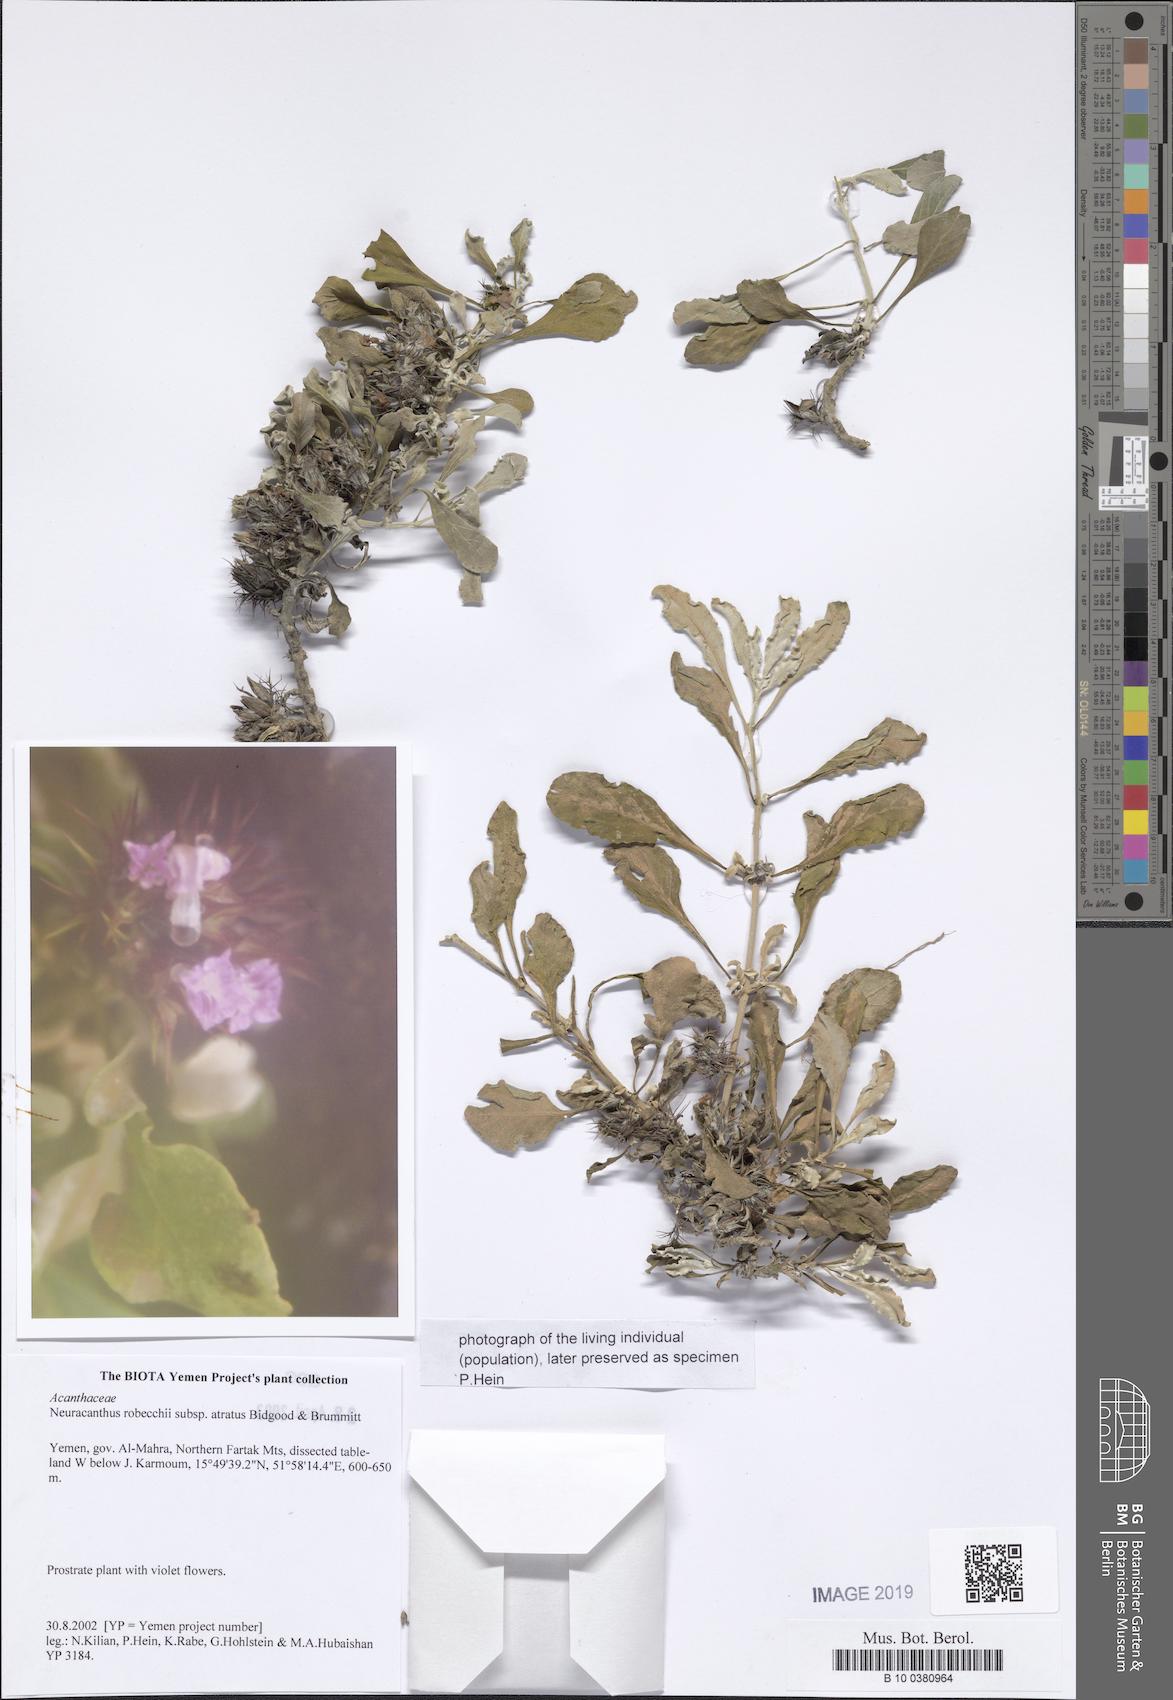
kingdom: Plantae
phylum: Tracheophyta
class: Magnoliopsida
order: Lamiales
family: Acanthaceae
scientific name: Acanthaceae
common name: Acanthaceae
